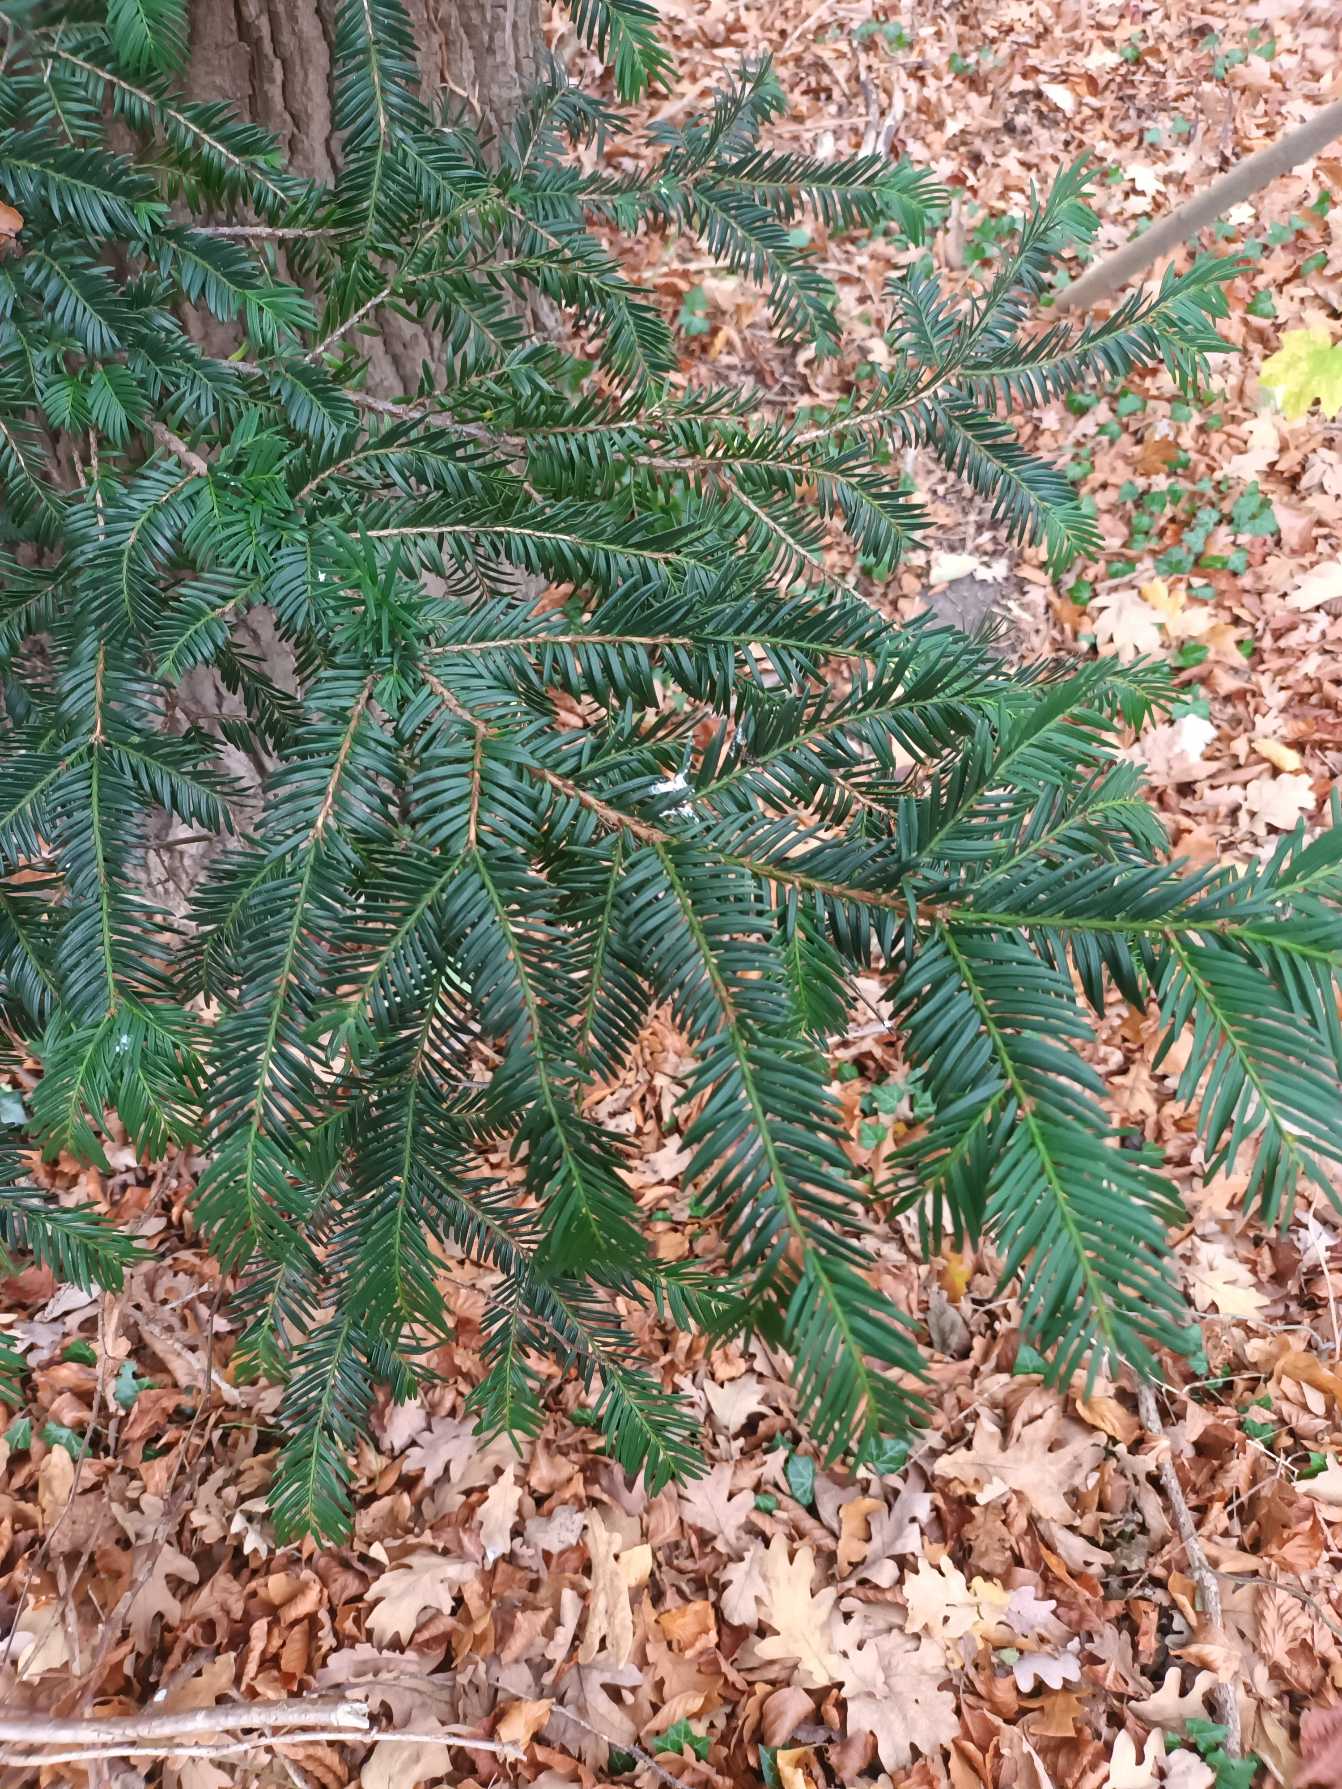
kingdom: Plantae
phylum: Tracheophyta
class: Pinopsida
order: Pinales
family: Taxaceae
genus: Taxus
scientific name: Taxus baccata
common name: Almindelig taks
